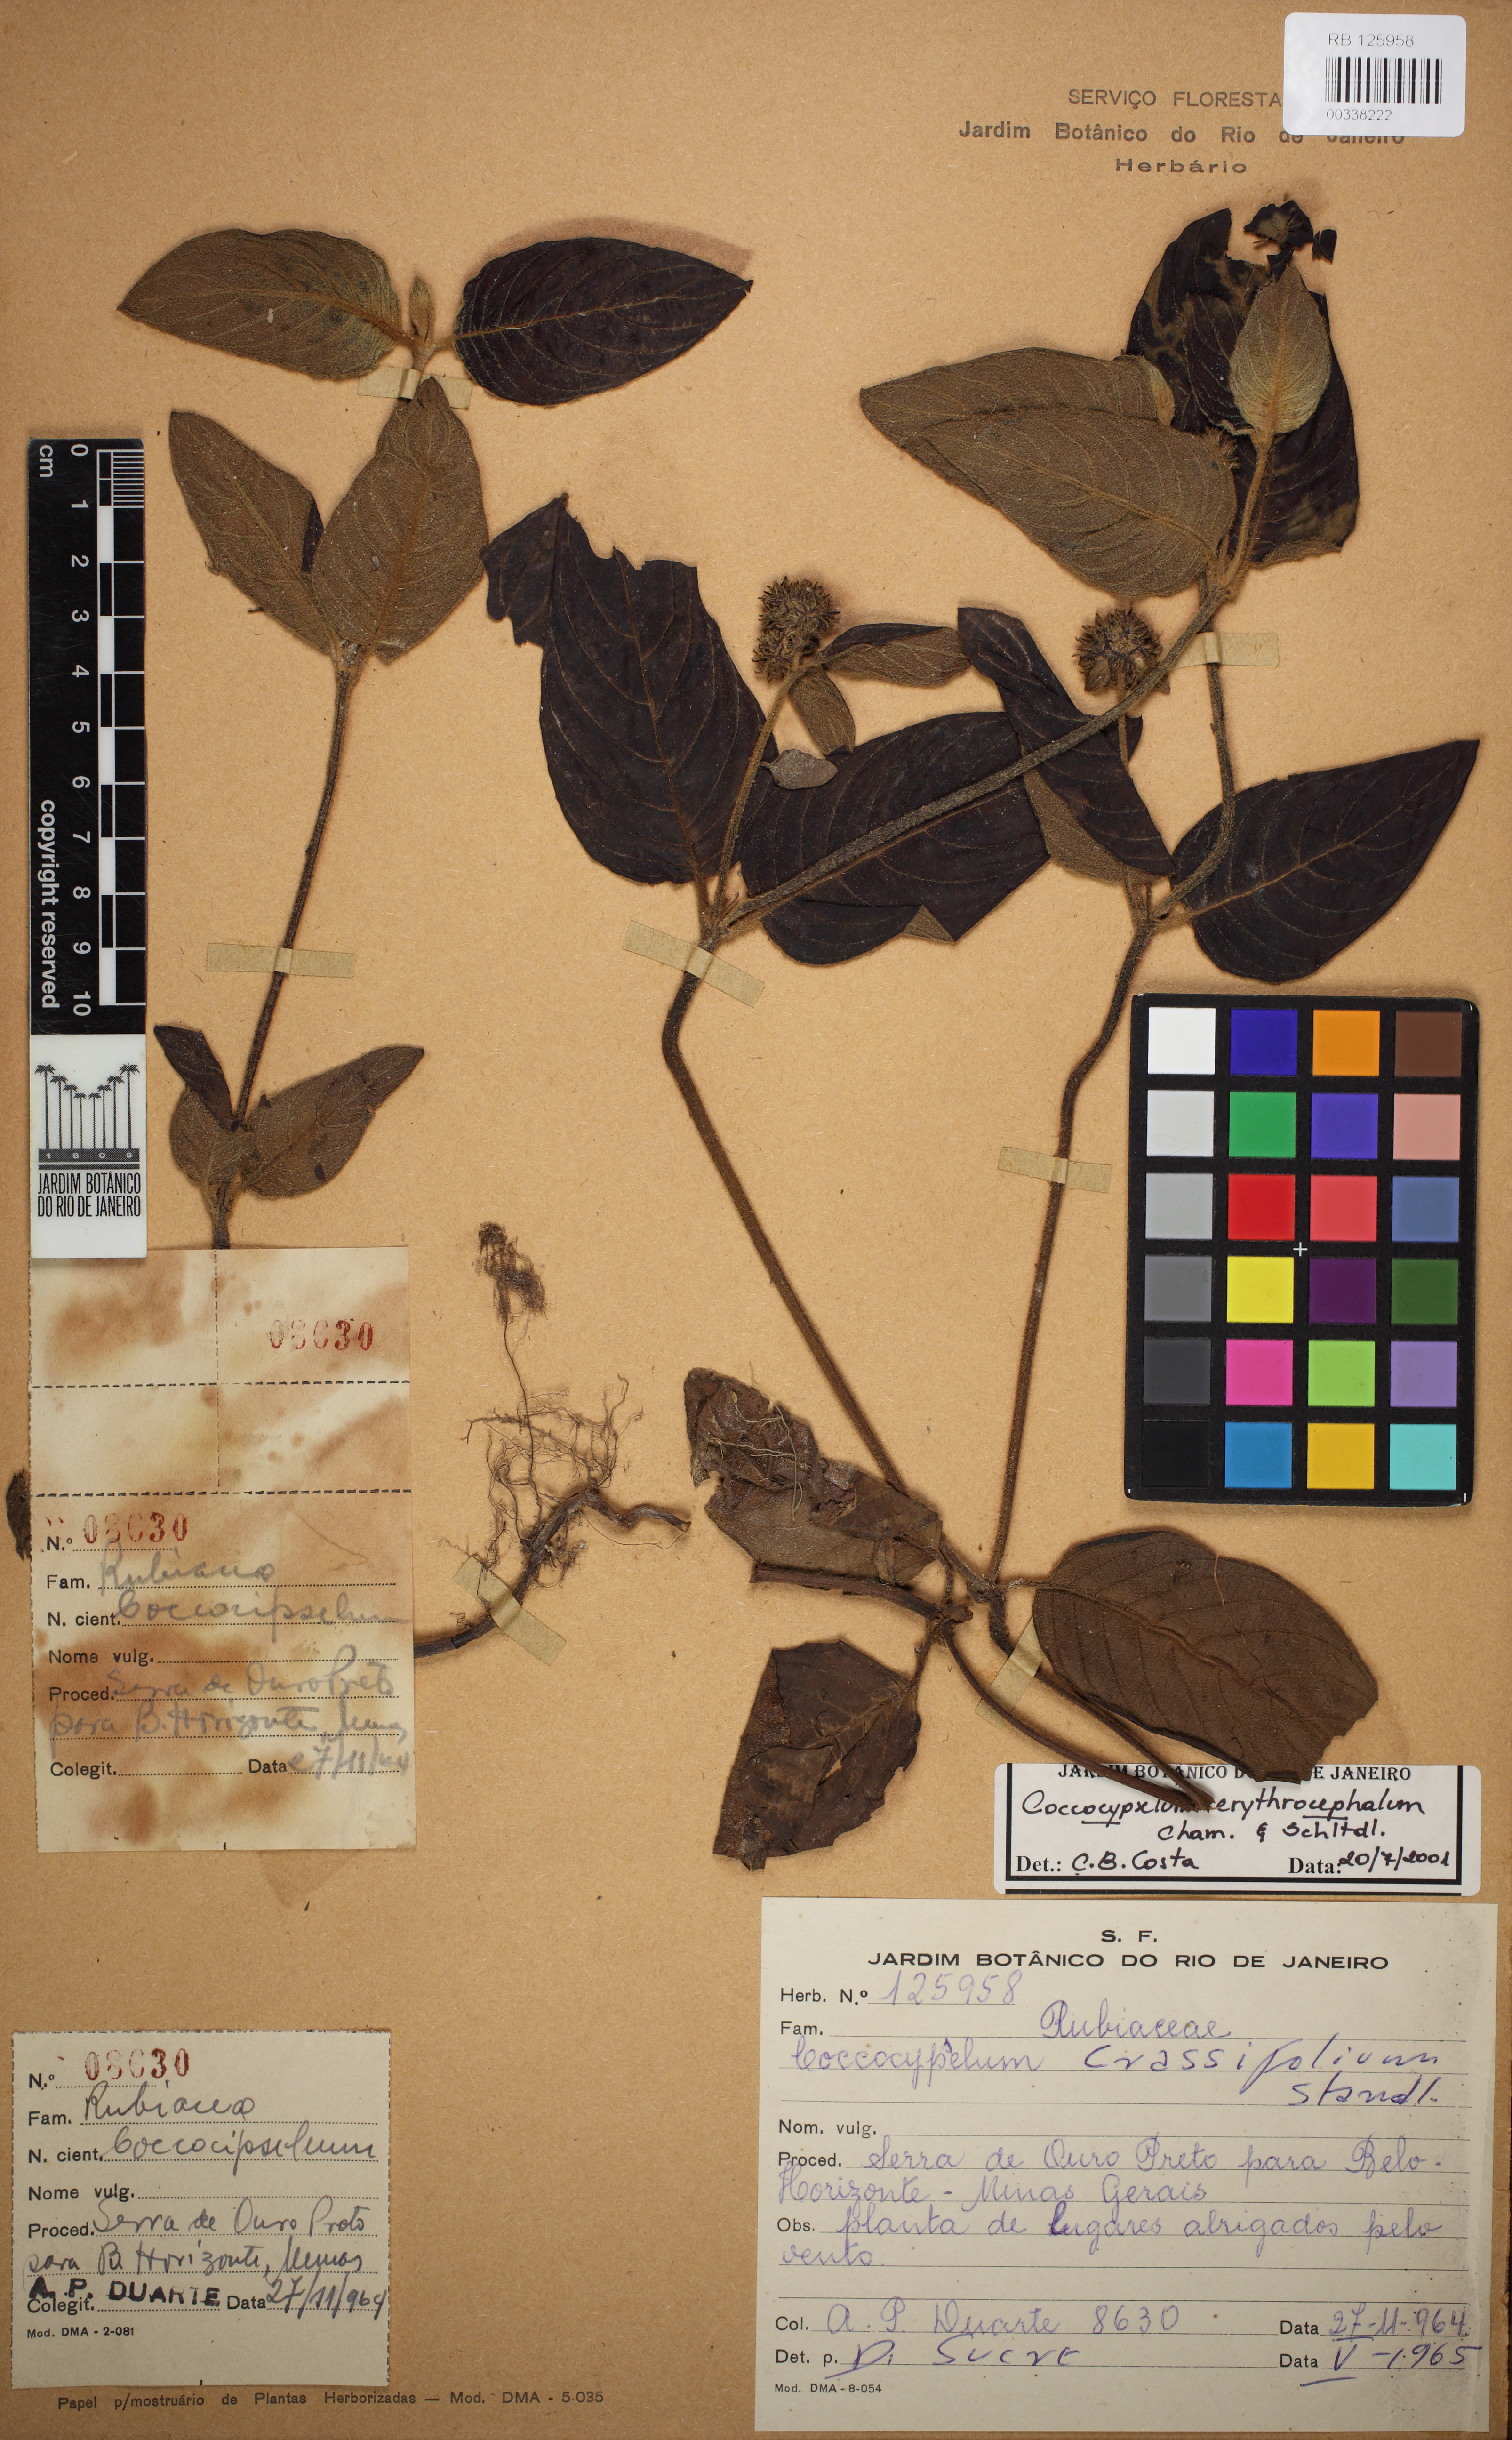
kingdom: Plantae
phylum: Tracheophyta
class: Magnoliopsida
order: Gentianales
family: Rubiaceae
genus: Coccocypselum
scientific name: Coccocypselum erythrocephalum
